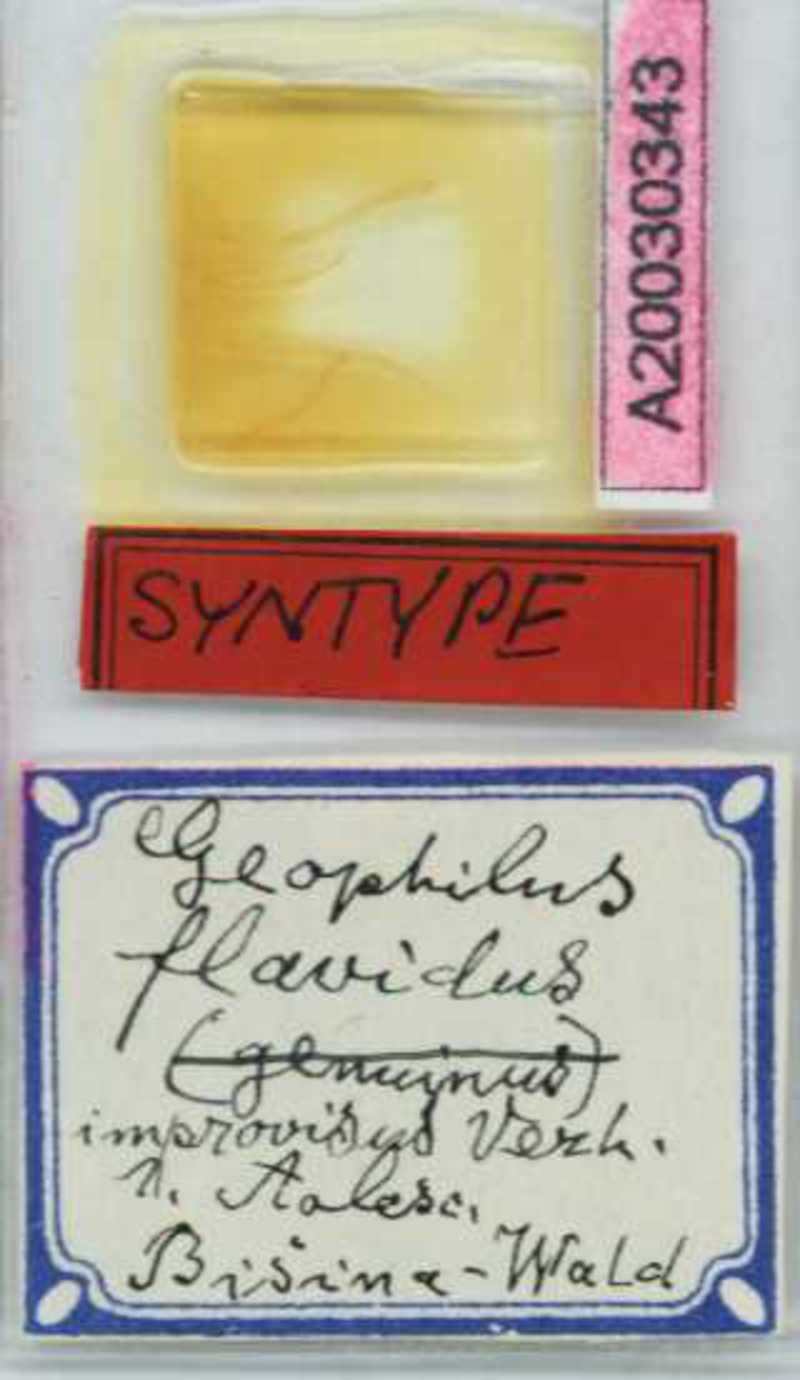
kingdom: Animalia
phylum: Arthropoda
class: Chilopoda
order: Geophilomorpha
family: Geophilidae
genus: Clinopodes
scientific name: Clinopodes flavidus
